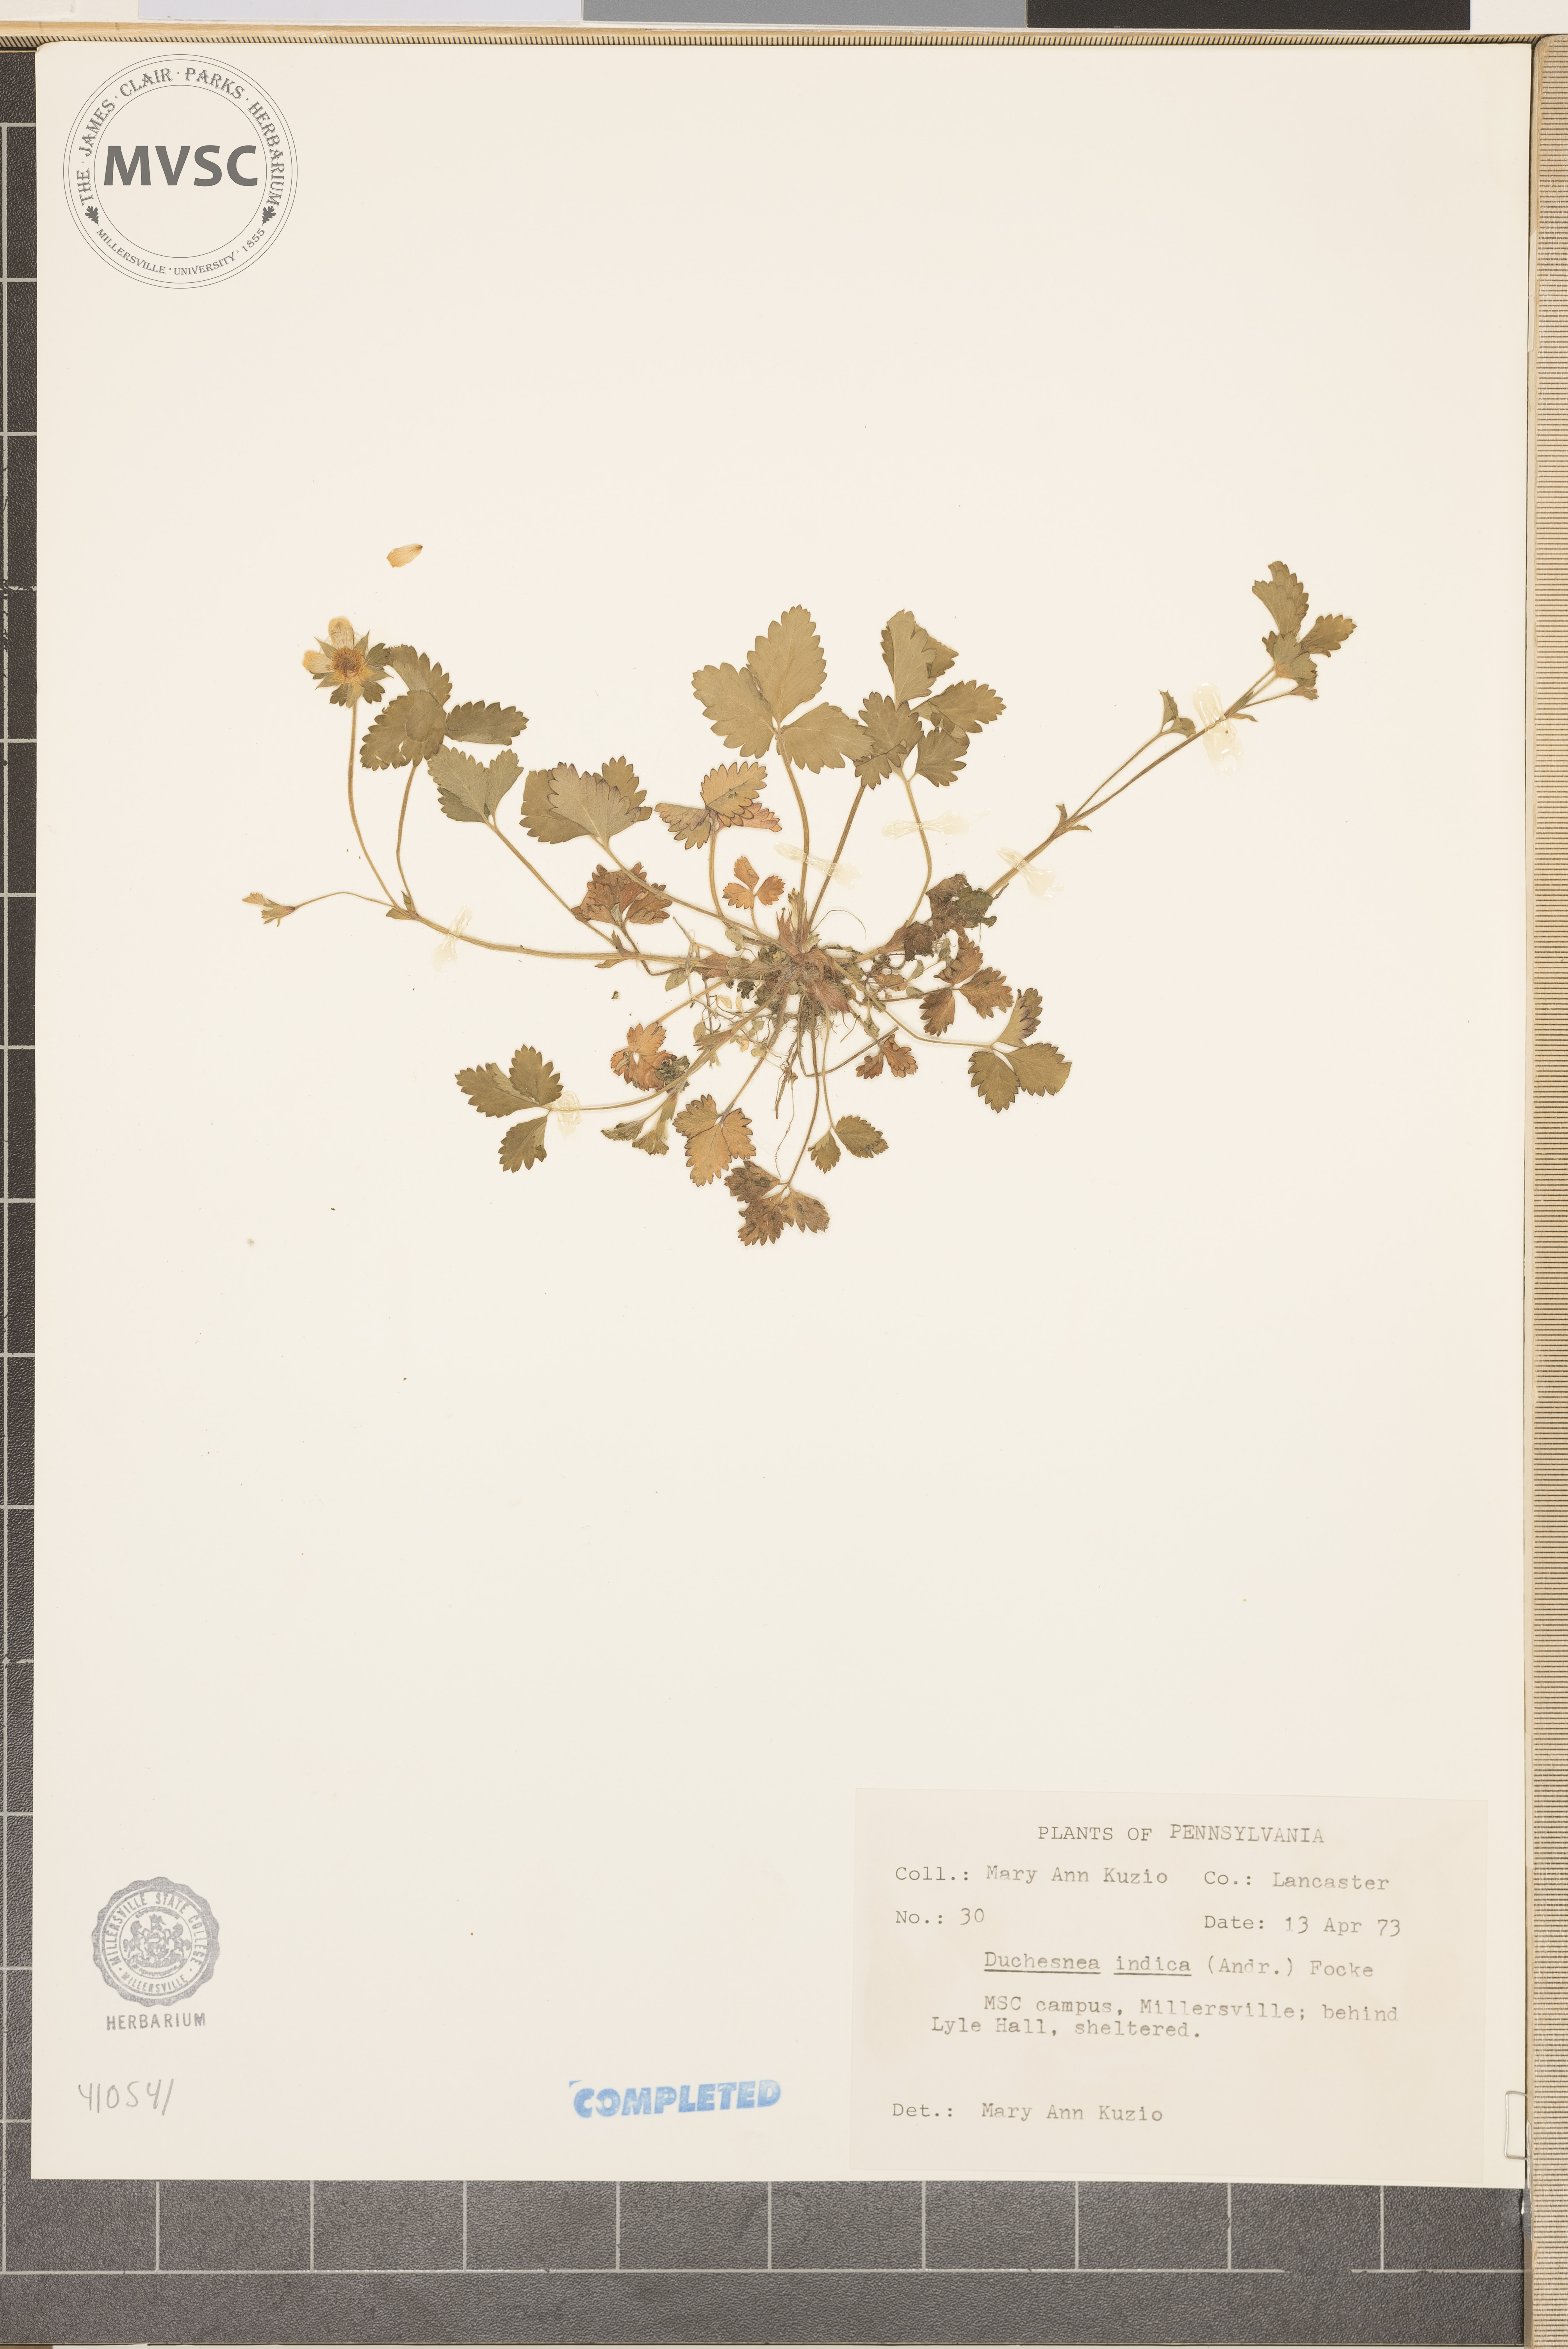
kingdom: Plantae
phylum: Tracheophyta
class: Magnoliopsida
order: Rosales
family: Rosaceae
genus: Potentilla
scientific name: Potentilla indica
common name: Yellow-flowered strawberry
